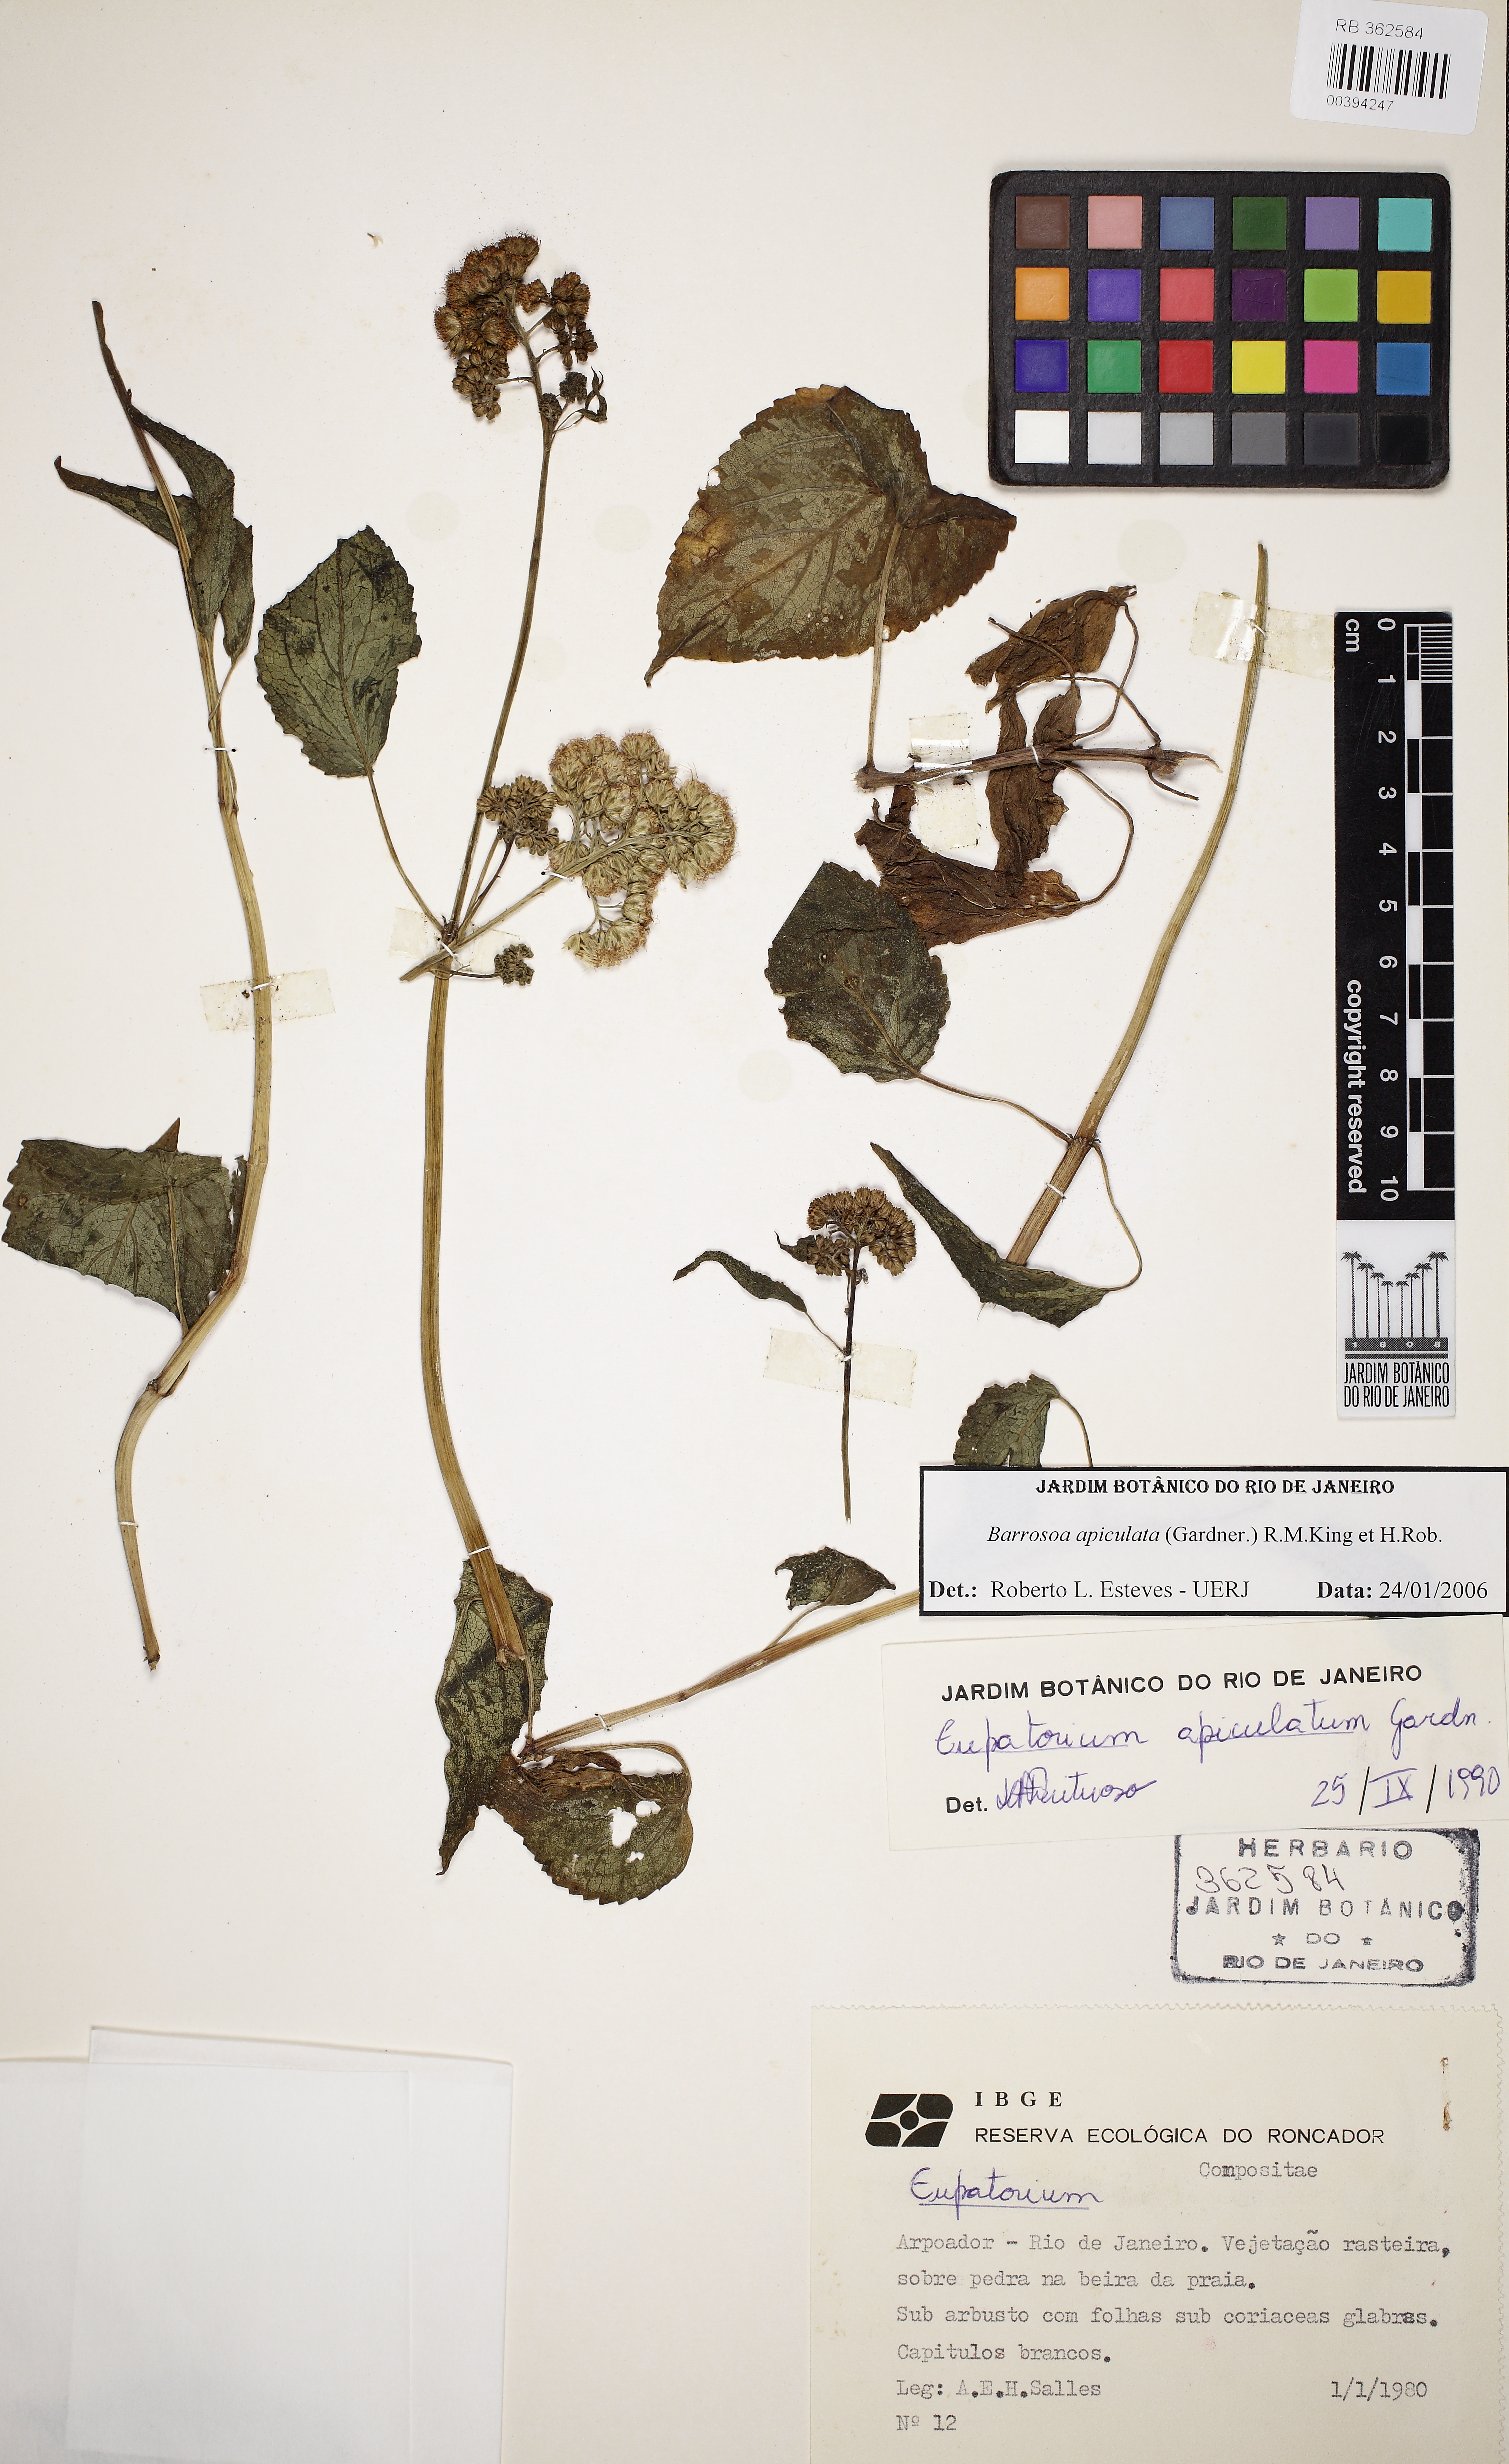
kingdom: Plantae
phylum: Tracheophyta
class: Magnoliopsida
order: Asterales
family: Asteraceae
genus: Barrosoa
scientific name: Barrosoa apiculata
